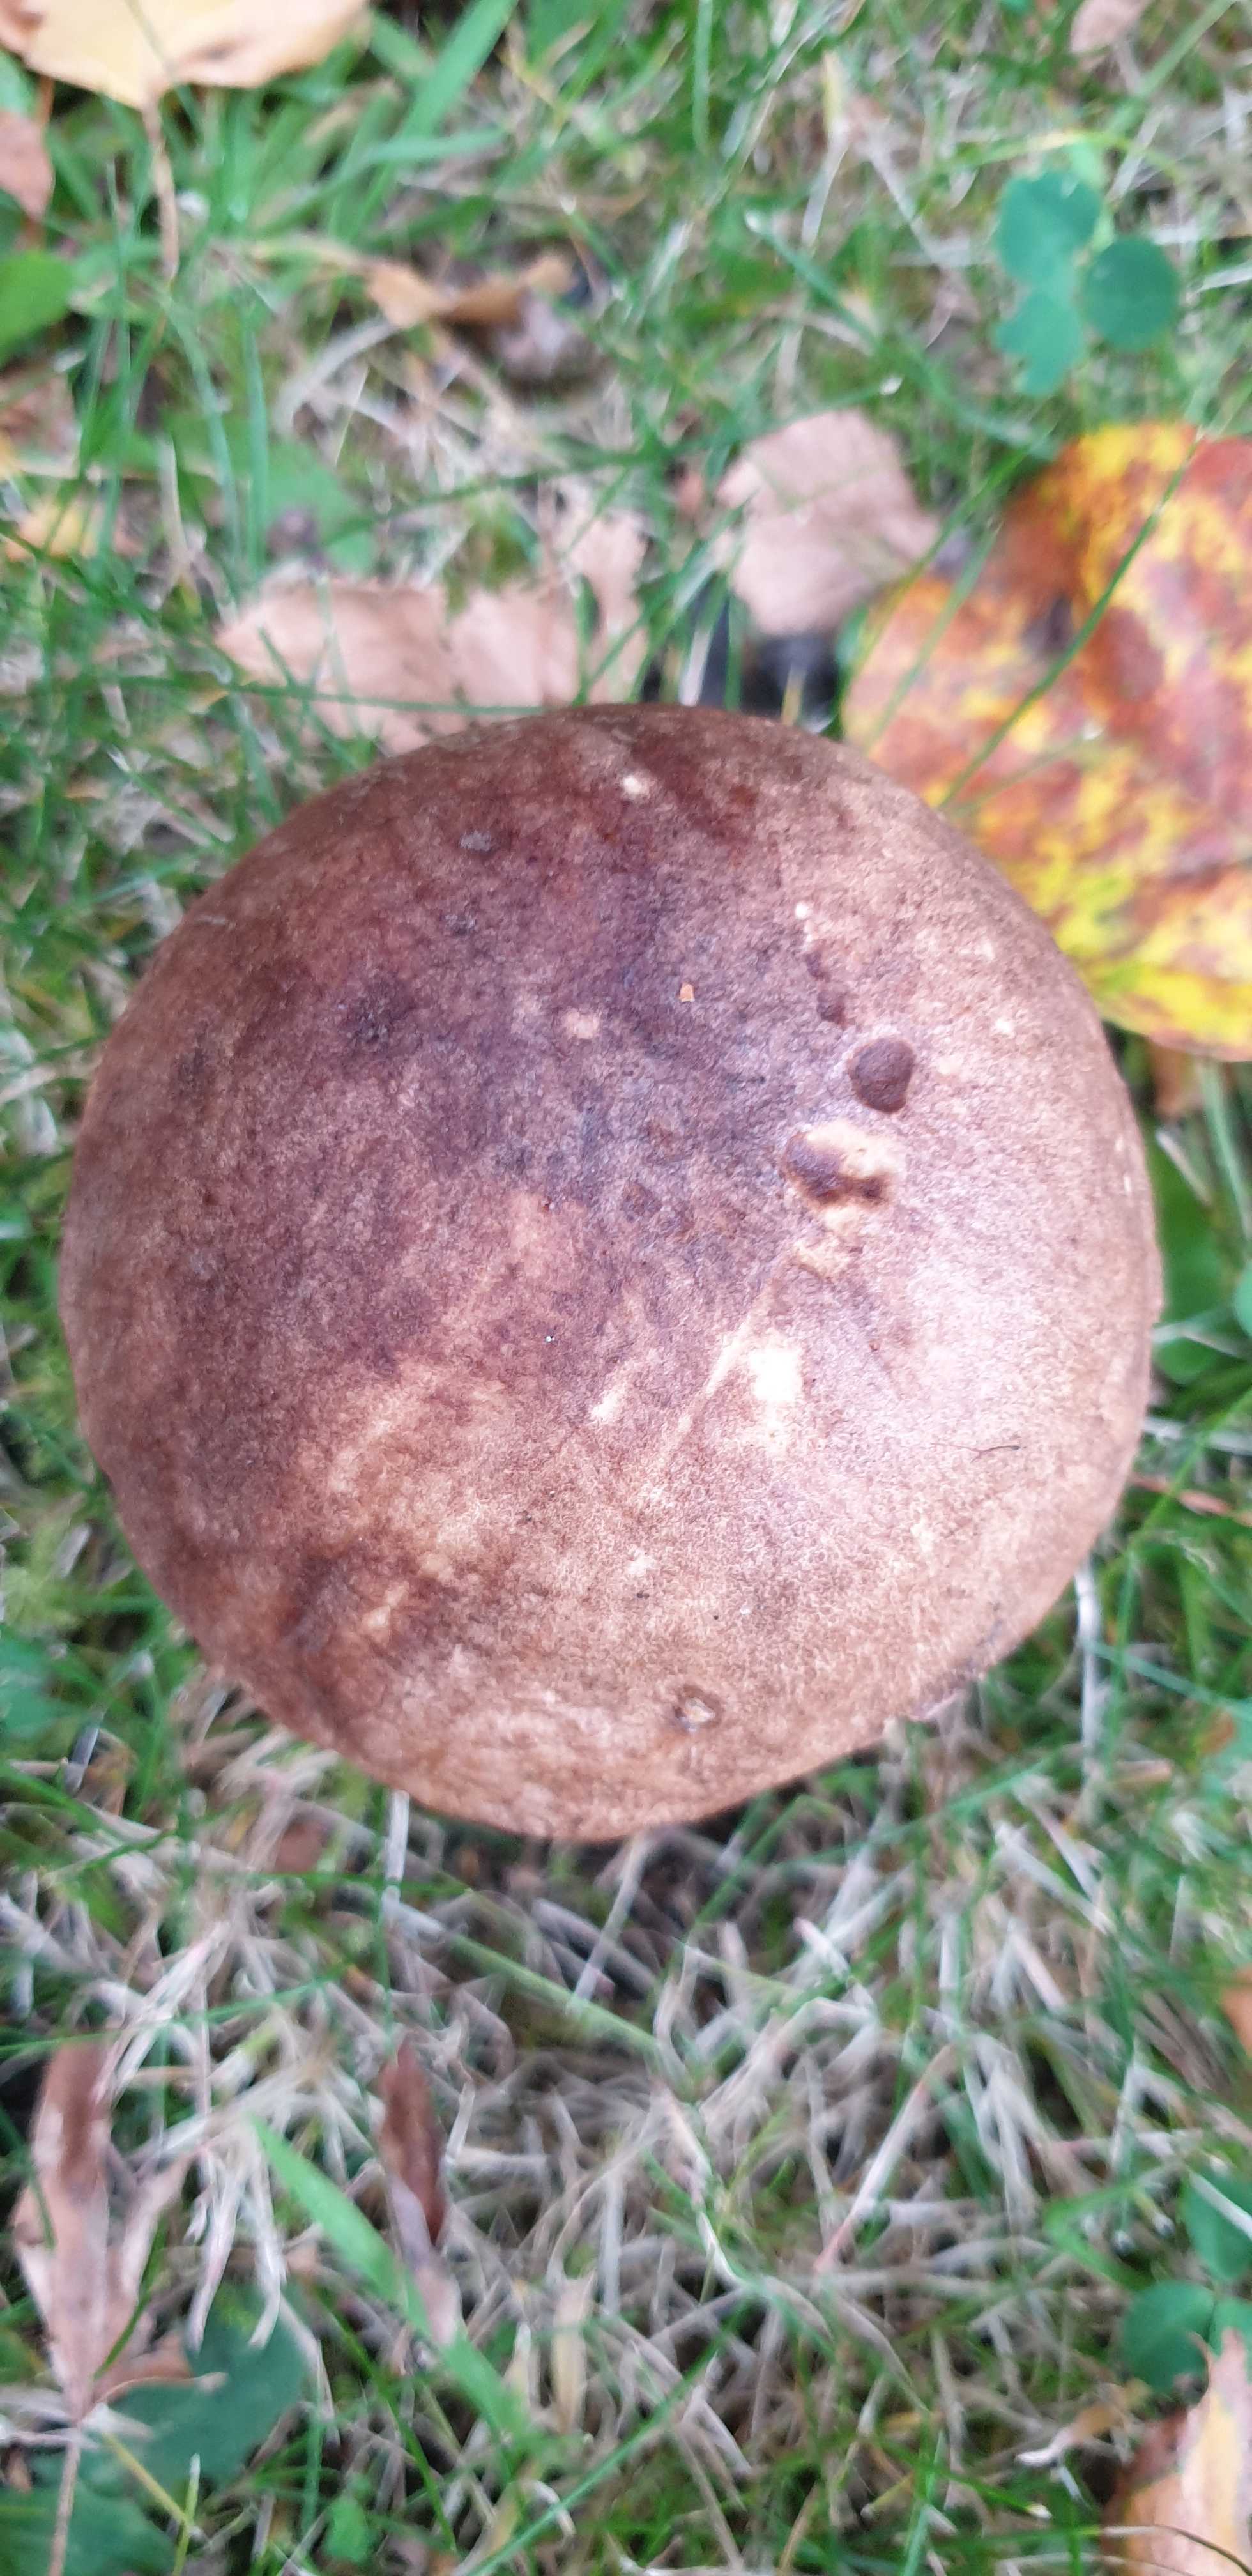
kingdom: Fungi
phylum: Basidiomycota
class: Agaricomycetes
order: Boletales
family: Boletaceae
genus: Leccinum
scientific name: Leccinum scabrum
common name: brun skælrørhat
